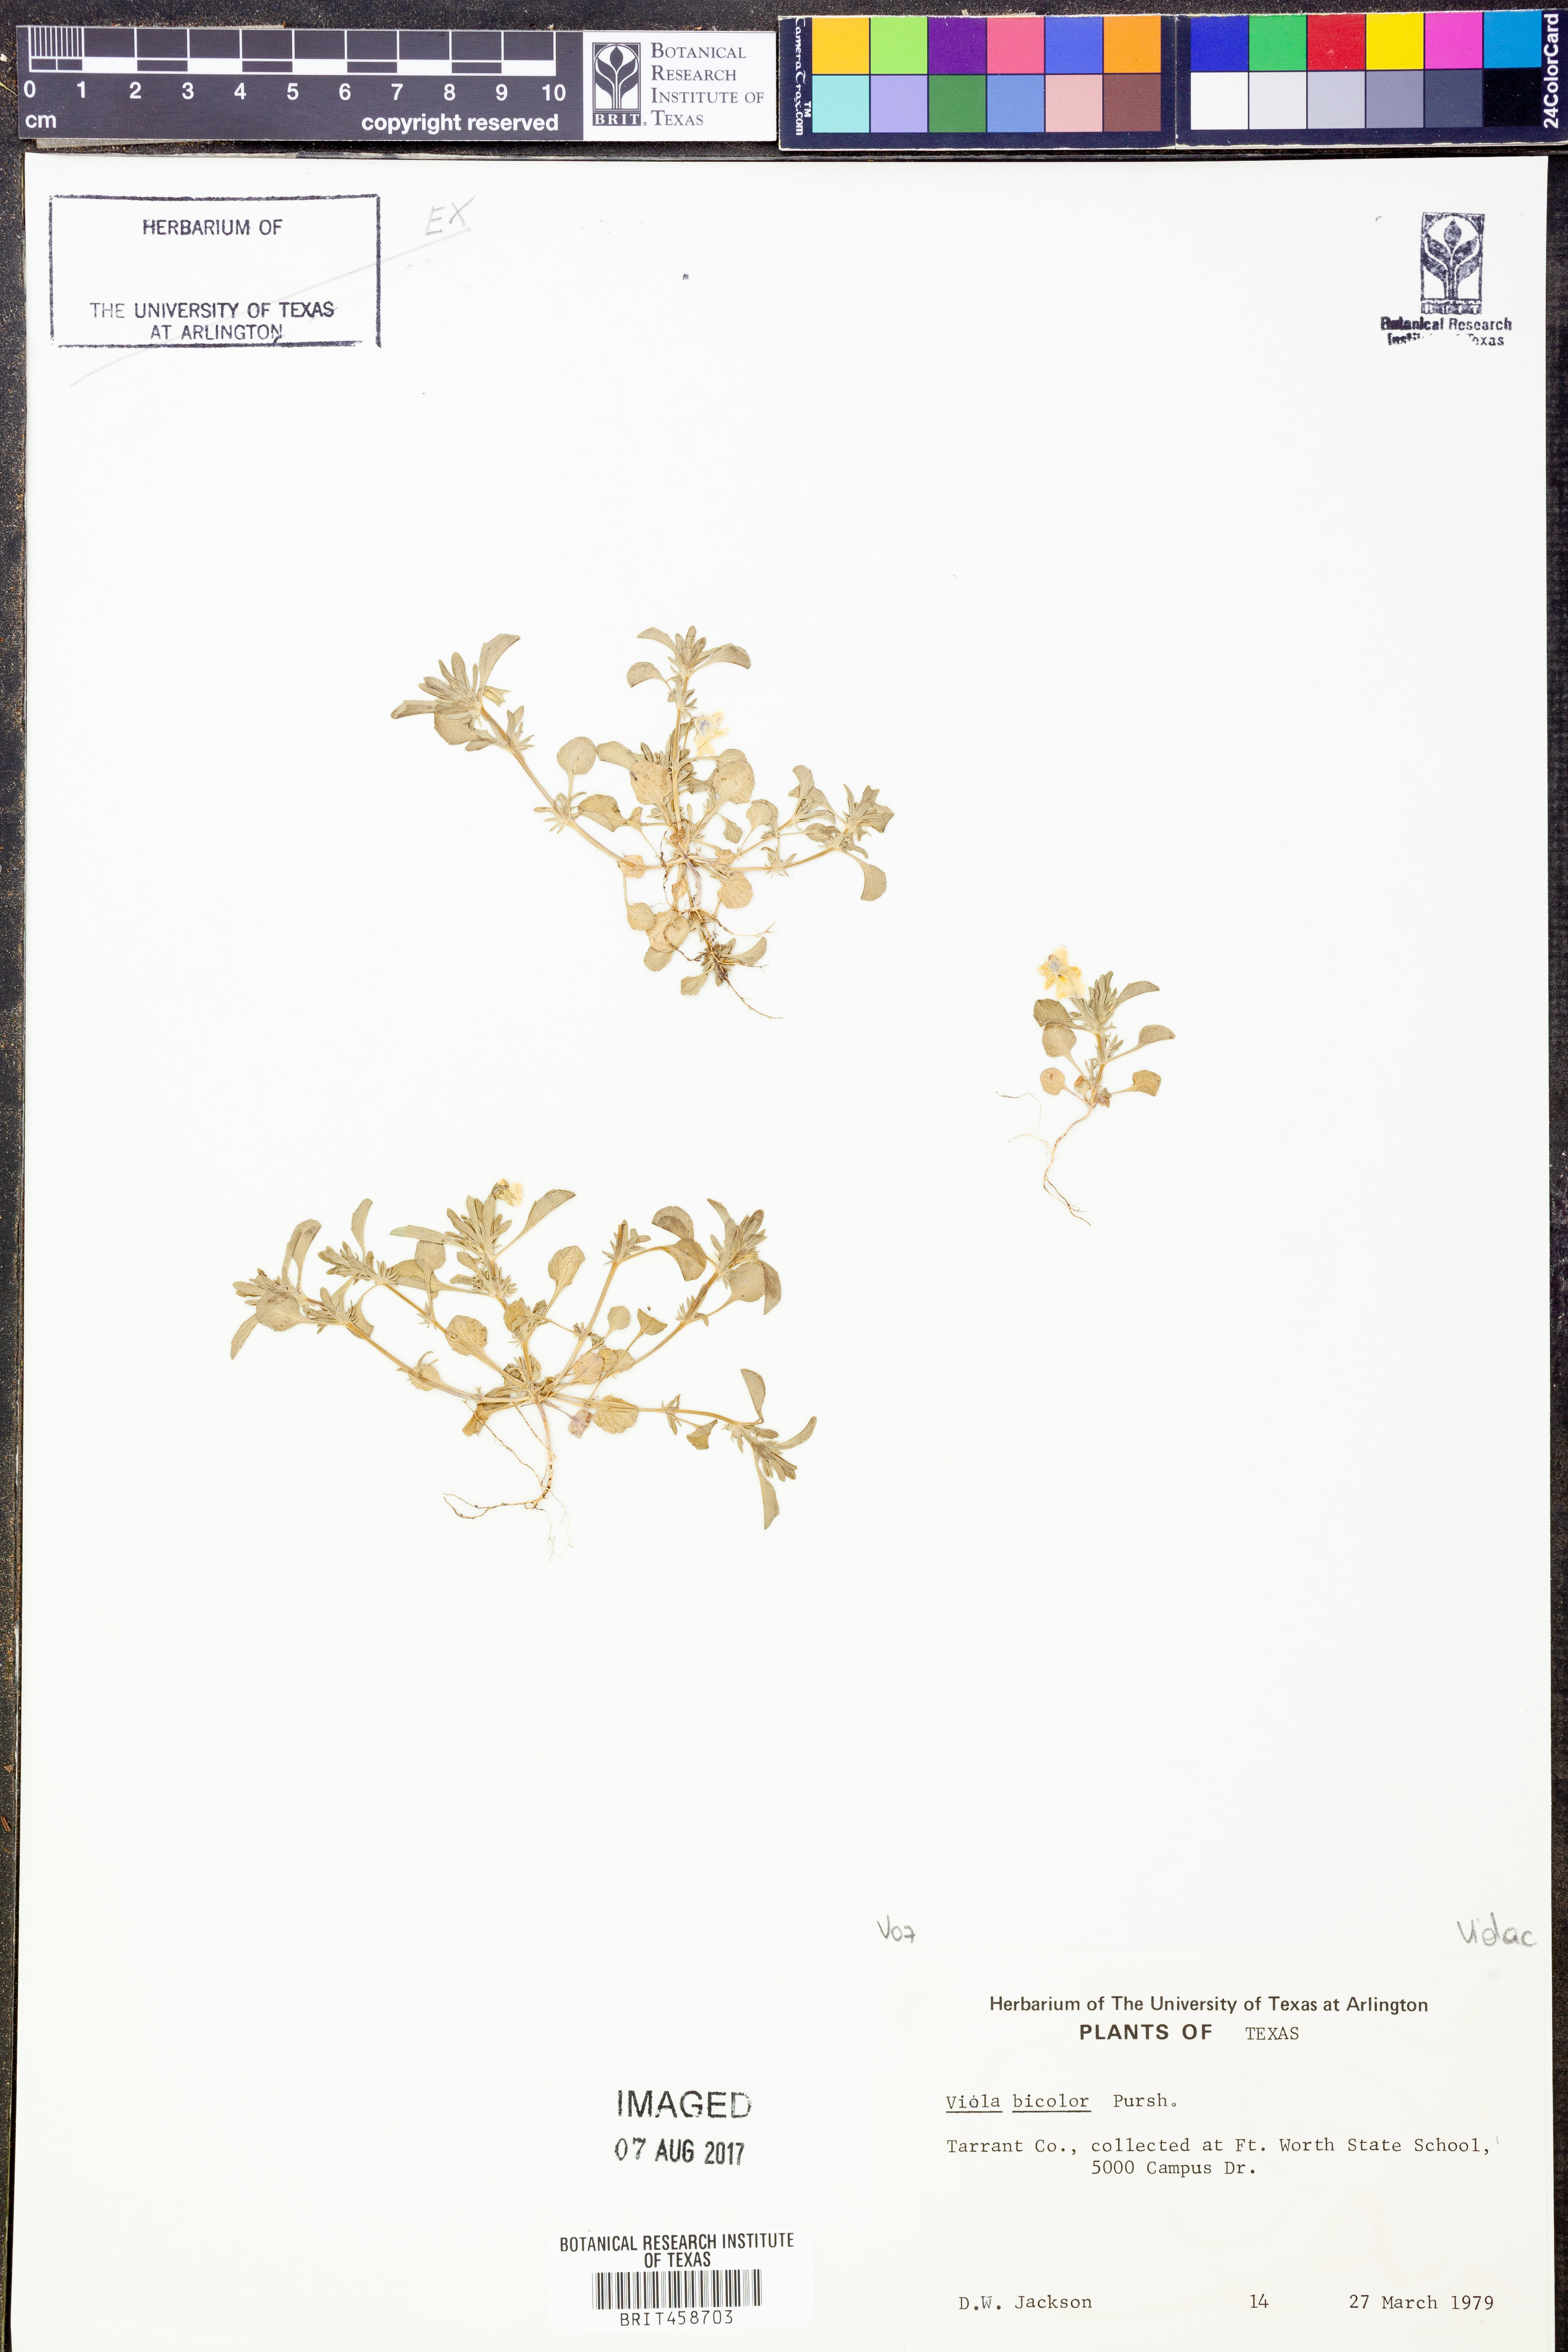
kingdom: Plantae
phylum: Tracheophyta
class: Magnoliopsida
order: Malpighiales
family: Violaceae
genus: Viola
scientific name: Viola rafinesquei
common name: American field pansy
